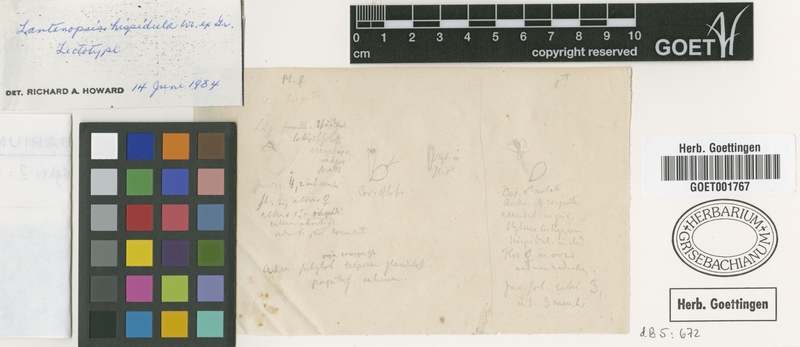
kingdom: Plantae
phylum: Tracheophyta
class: Magnoliopsida
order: Asterales
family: Asteraceae
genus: Lantanopsis
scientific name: Lantanopsis hispidula
